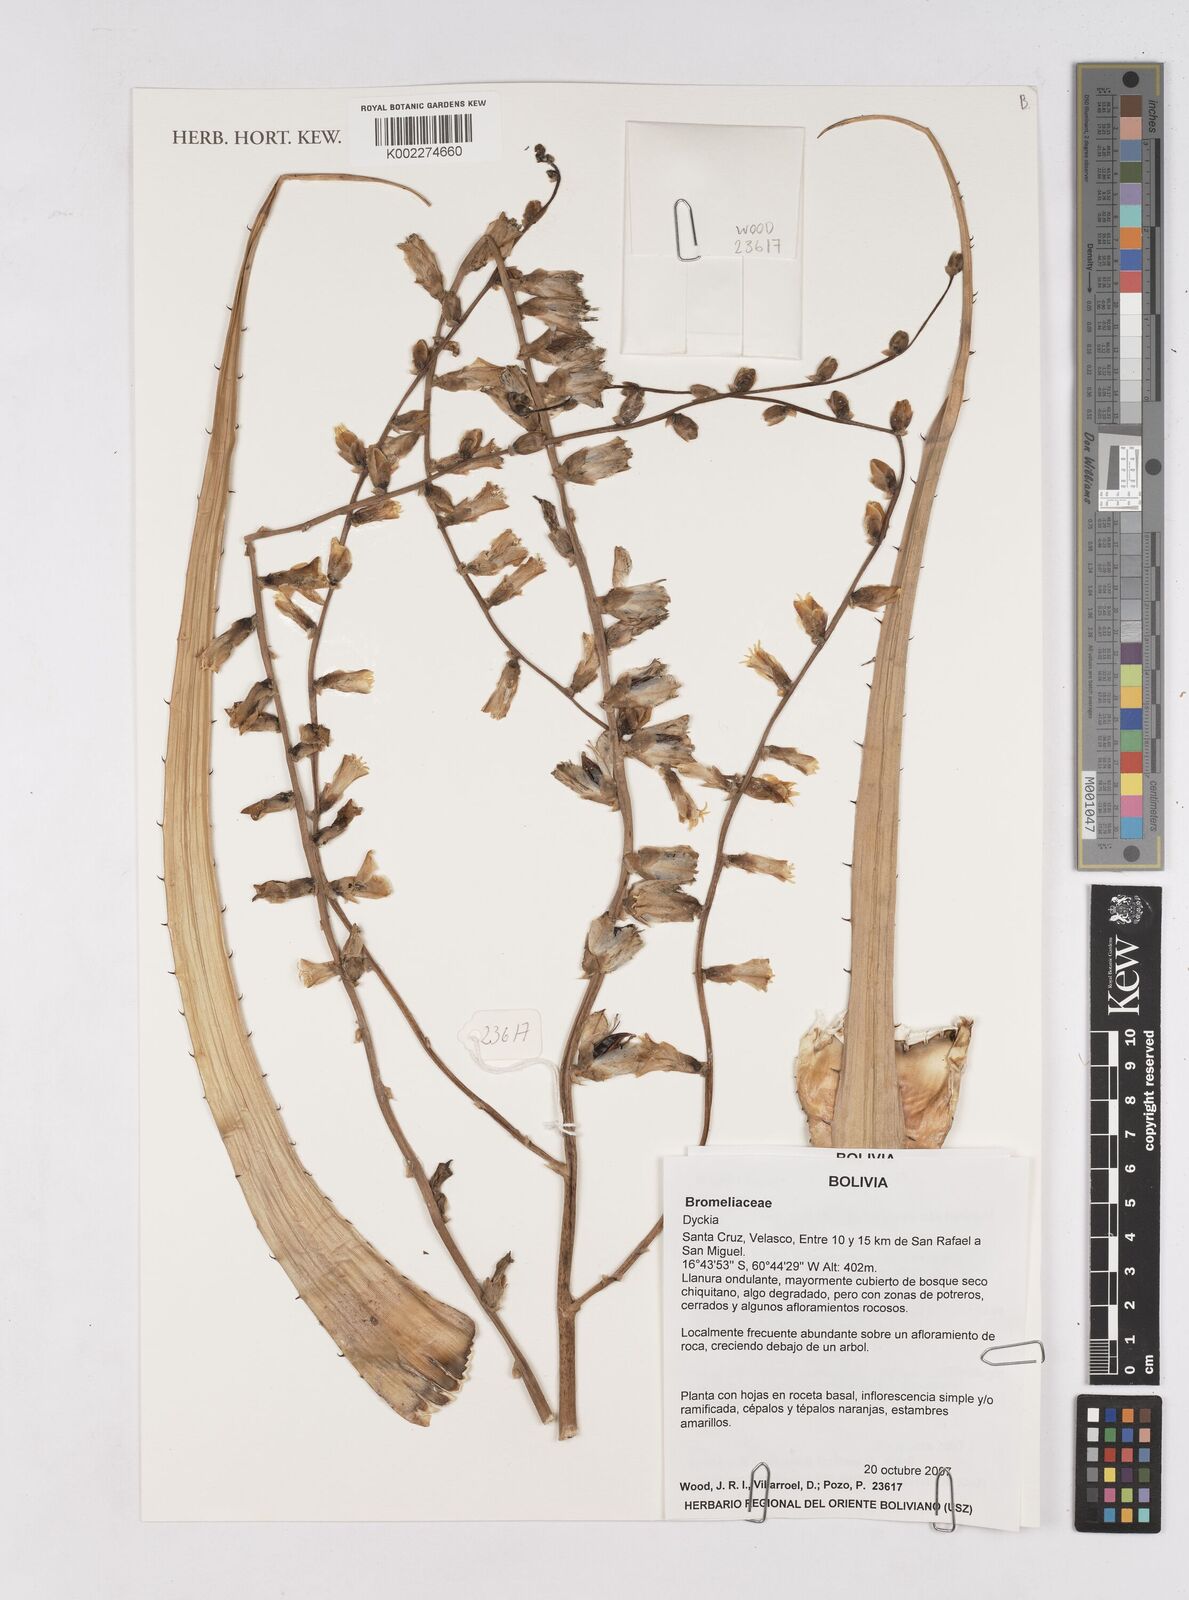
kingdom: Plantae
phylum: Tracheophyta
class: Liliopsida
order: Poales
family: Bromeliaceae
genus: Dyckia
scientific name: Dyckia
